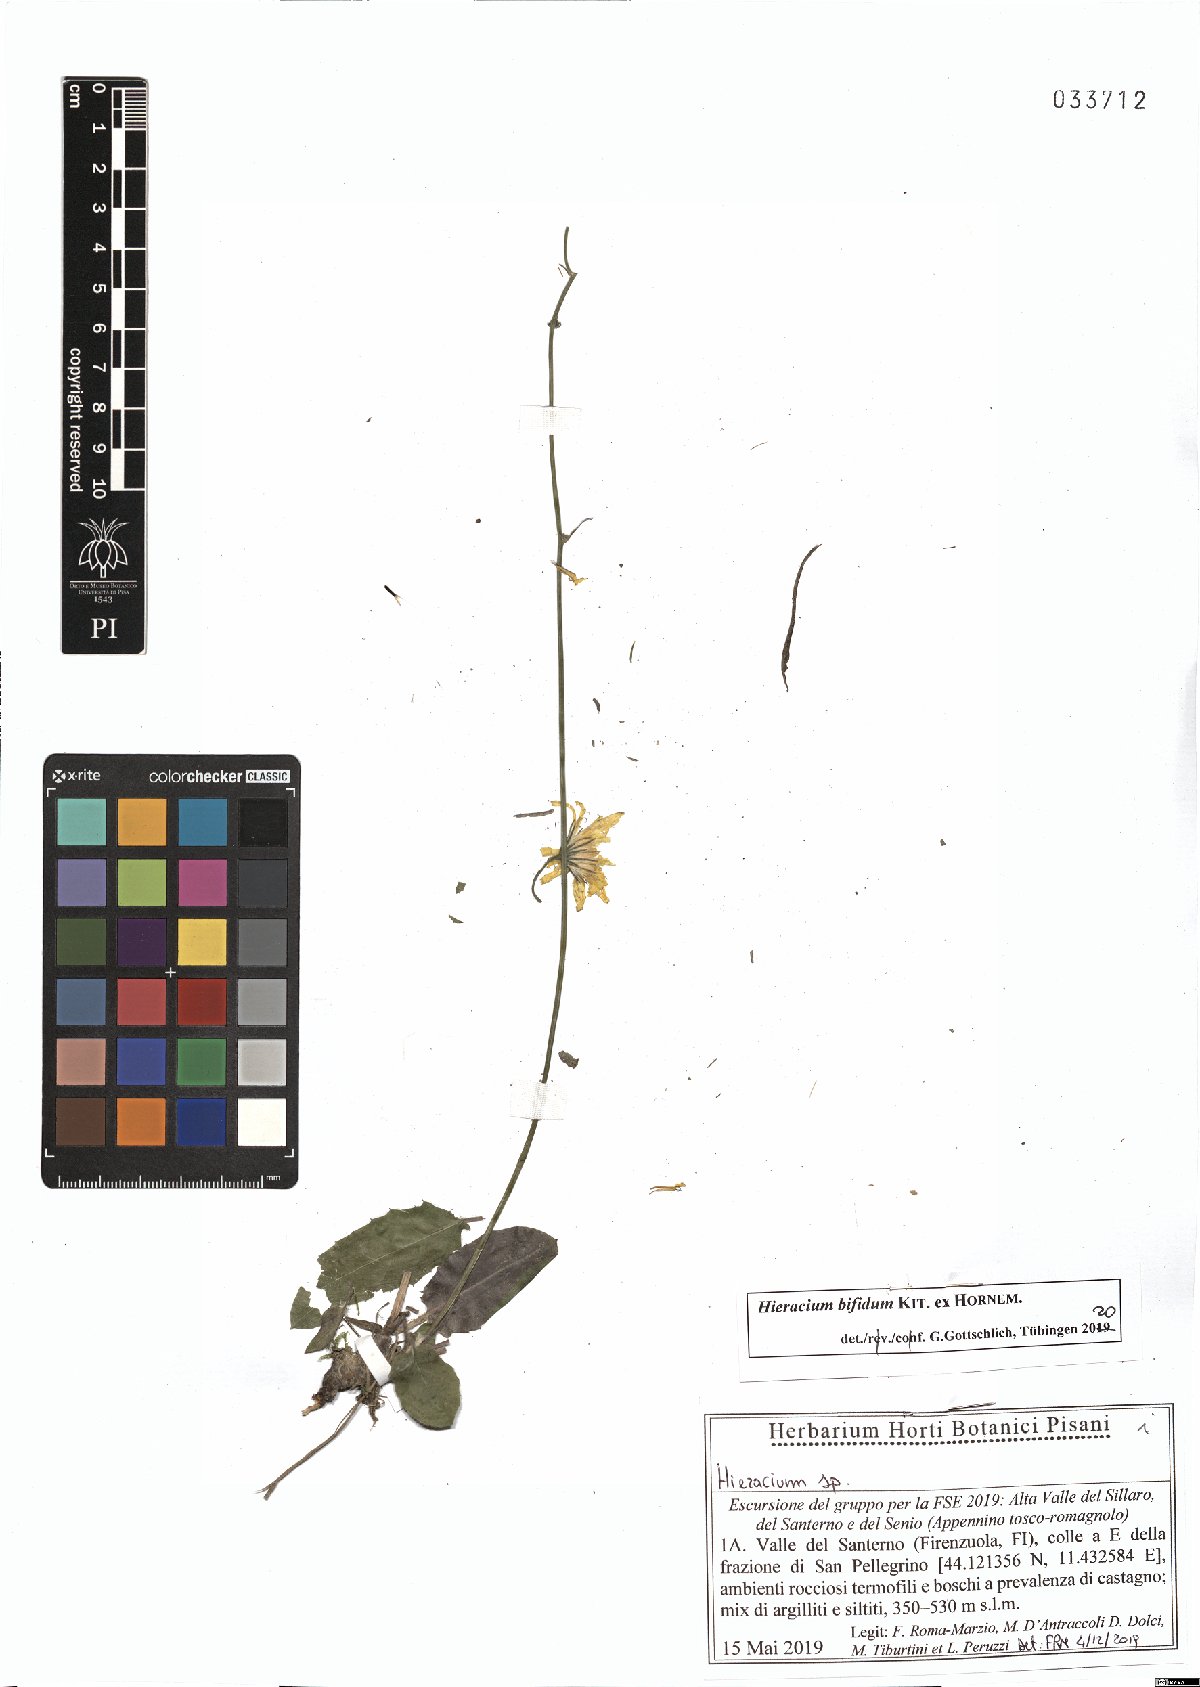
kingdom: Plantae
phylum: Tracheophyta
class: Magnoliopsida
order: Asterales
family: Asteraceae
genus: Hieracium
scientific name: Hieracium bifidum
